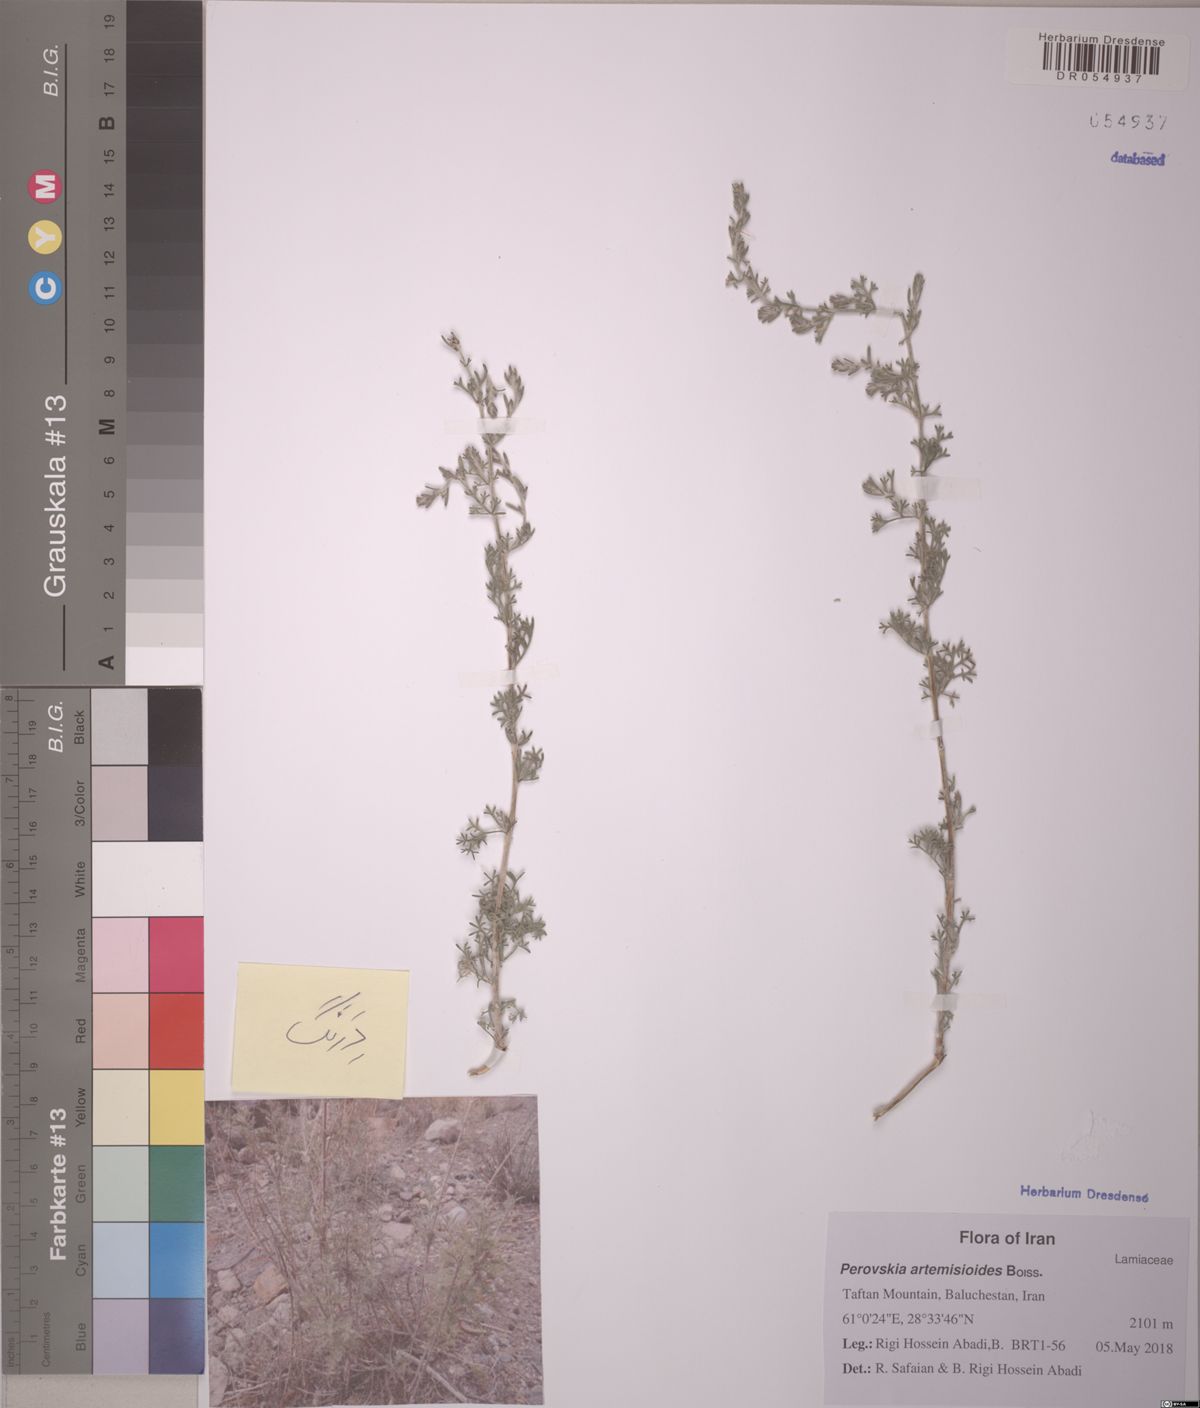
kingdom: Plantae
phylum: Tracheophyta
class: Magnoliopsida
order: Asterales
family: Asteraceae
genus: Artemisia
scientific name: Artemisia aucheri
